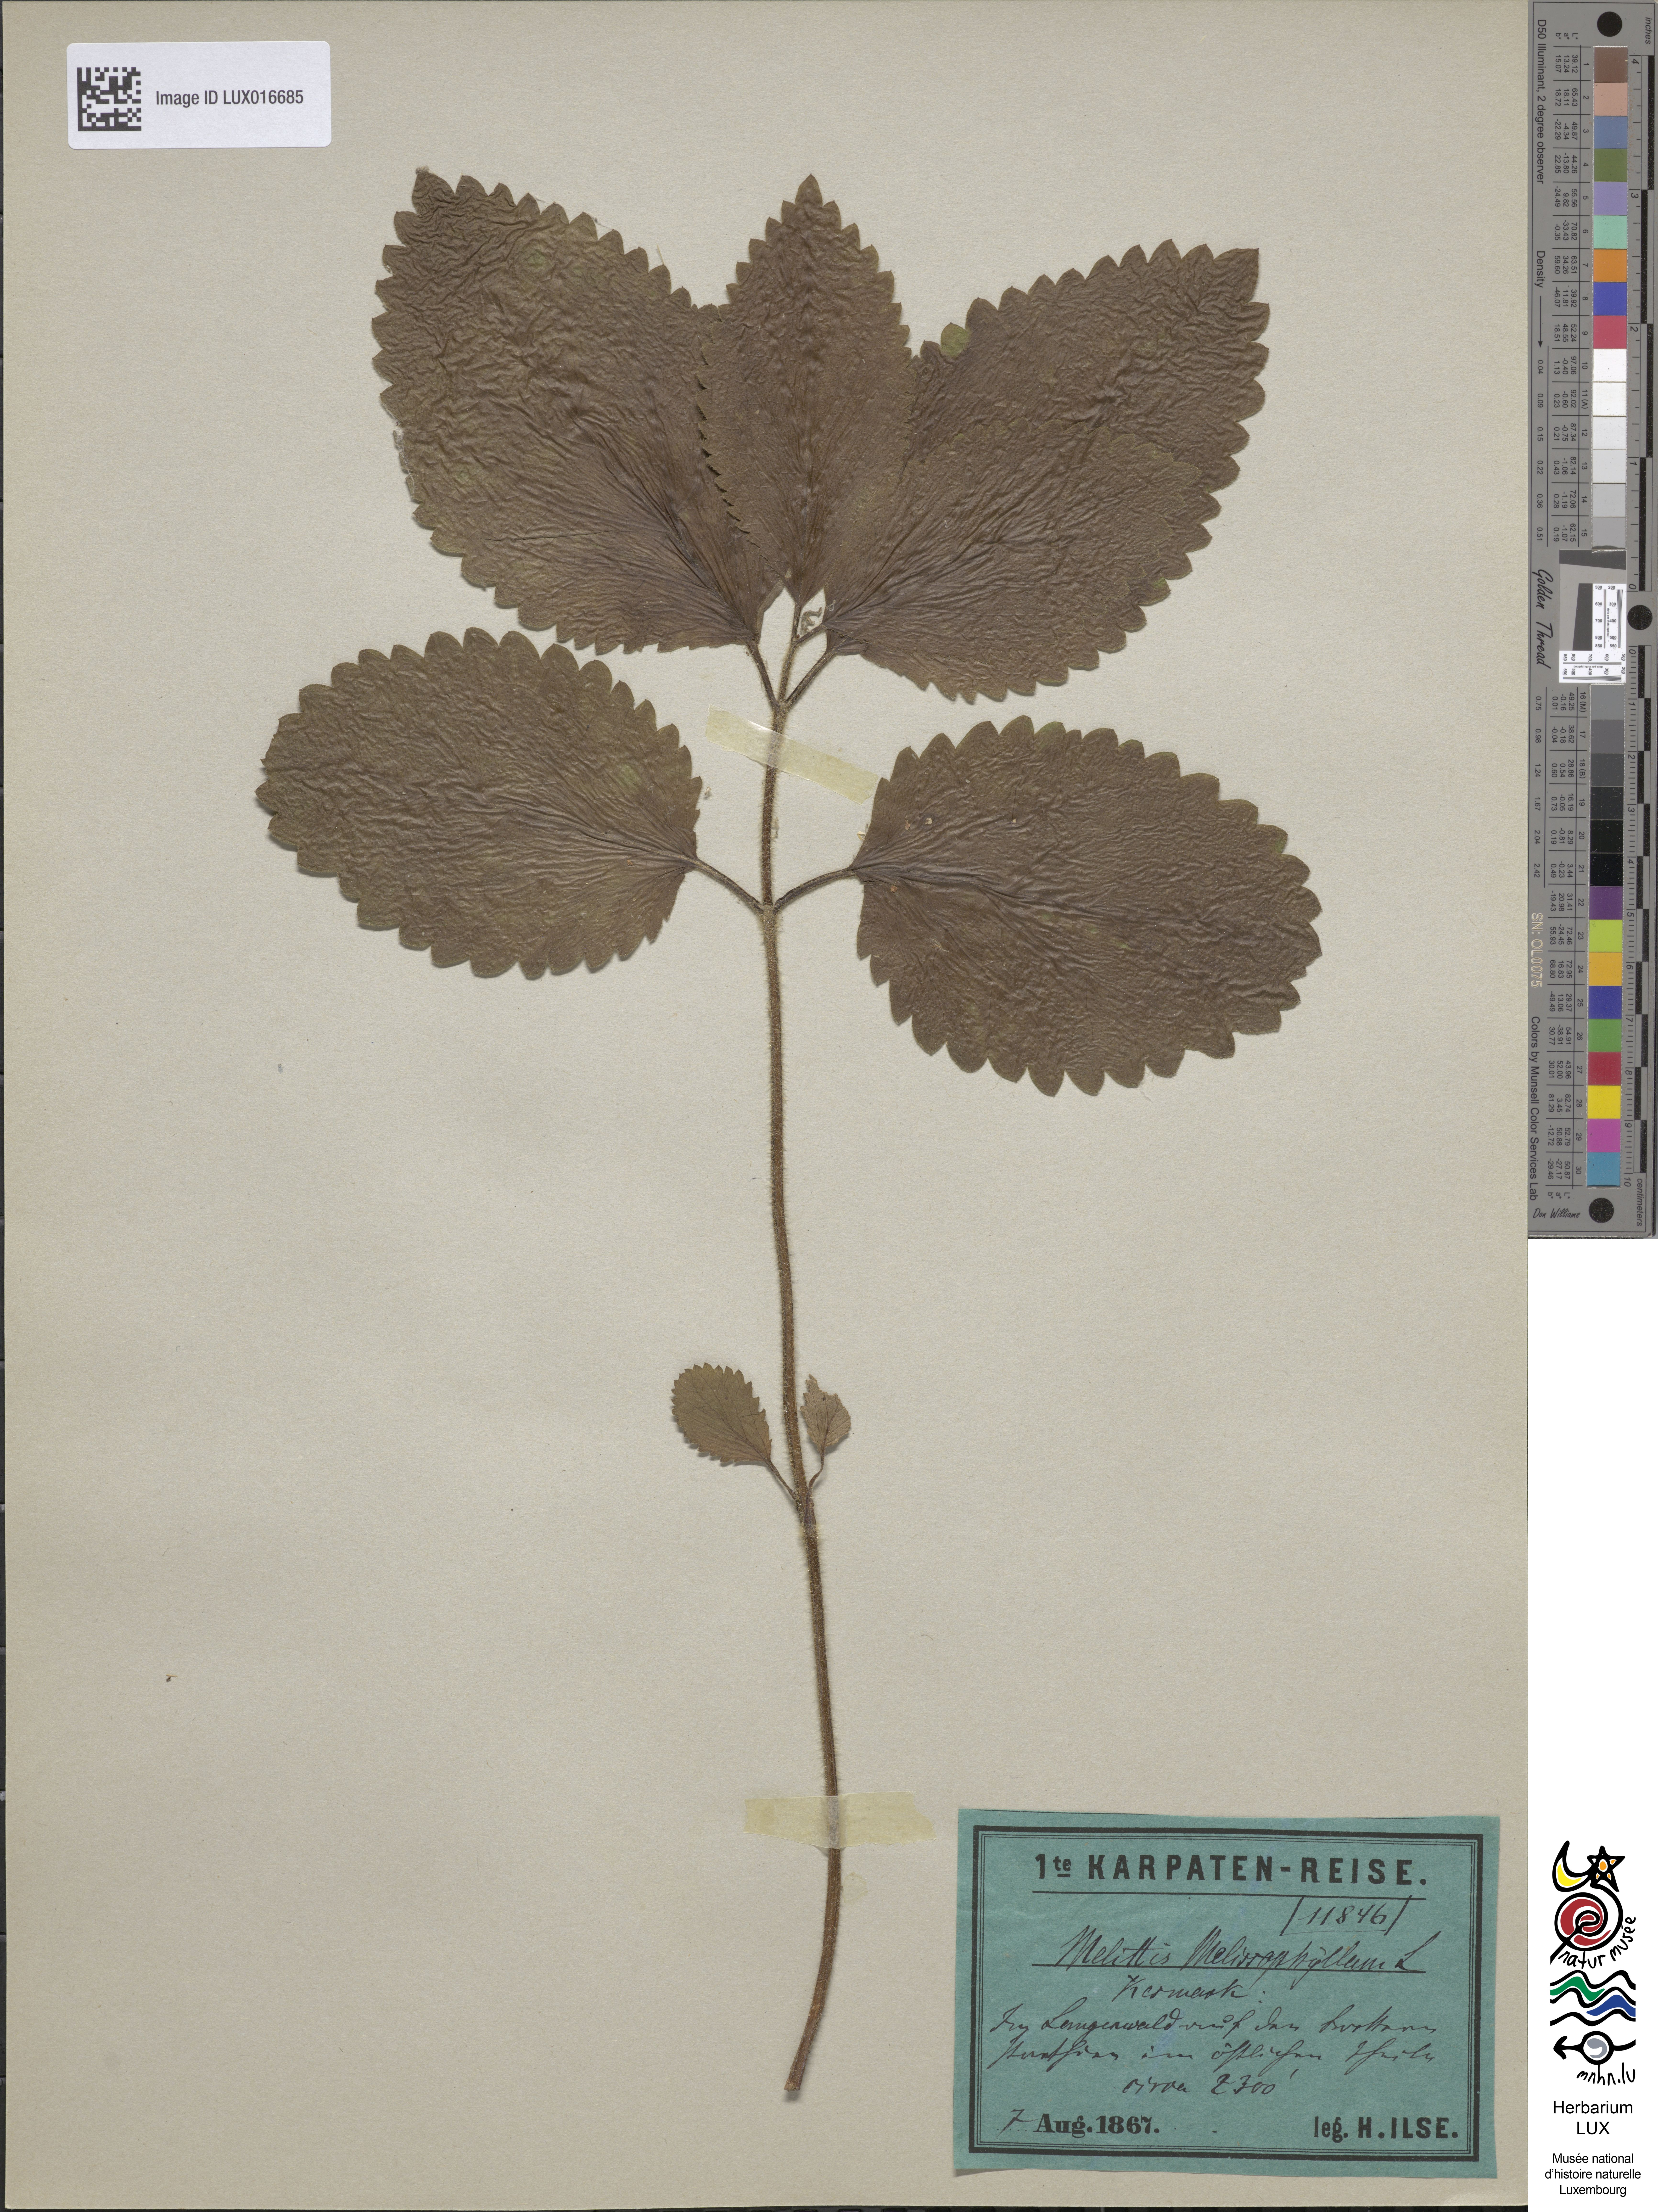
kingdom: Plantae
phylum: Tracheophyta
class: Magnoliopsida
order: Lamiales
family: Lamiaceae
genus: Melittis
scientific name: Melittis melissophyllum
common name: Bastard balm
